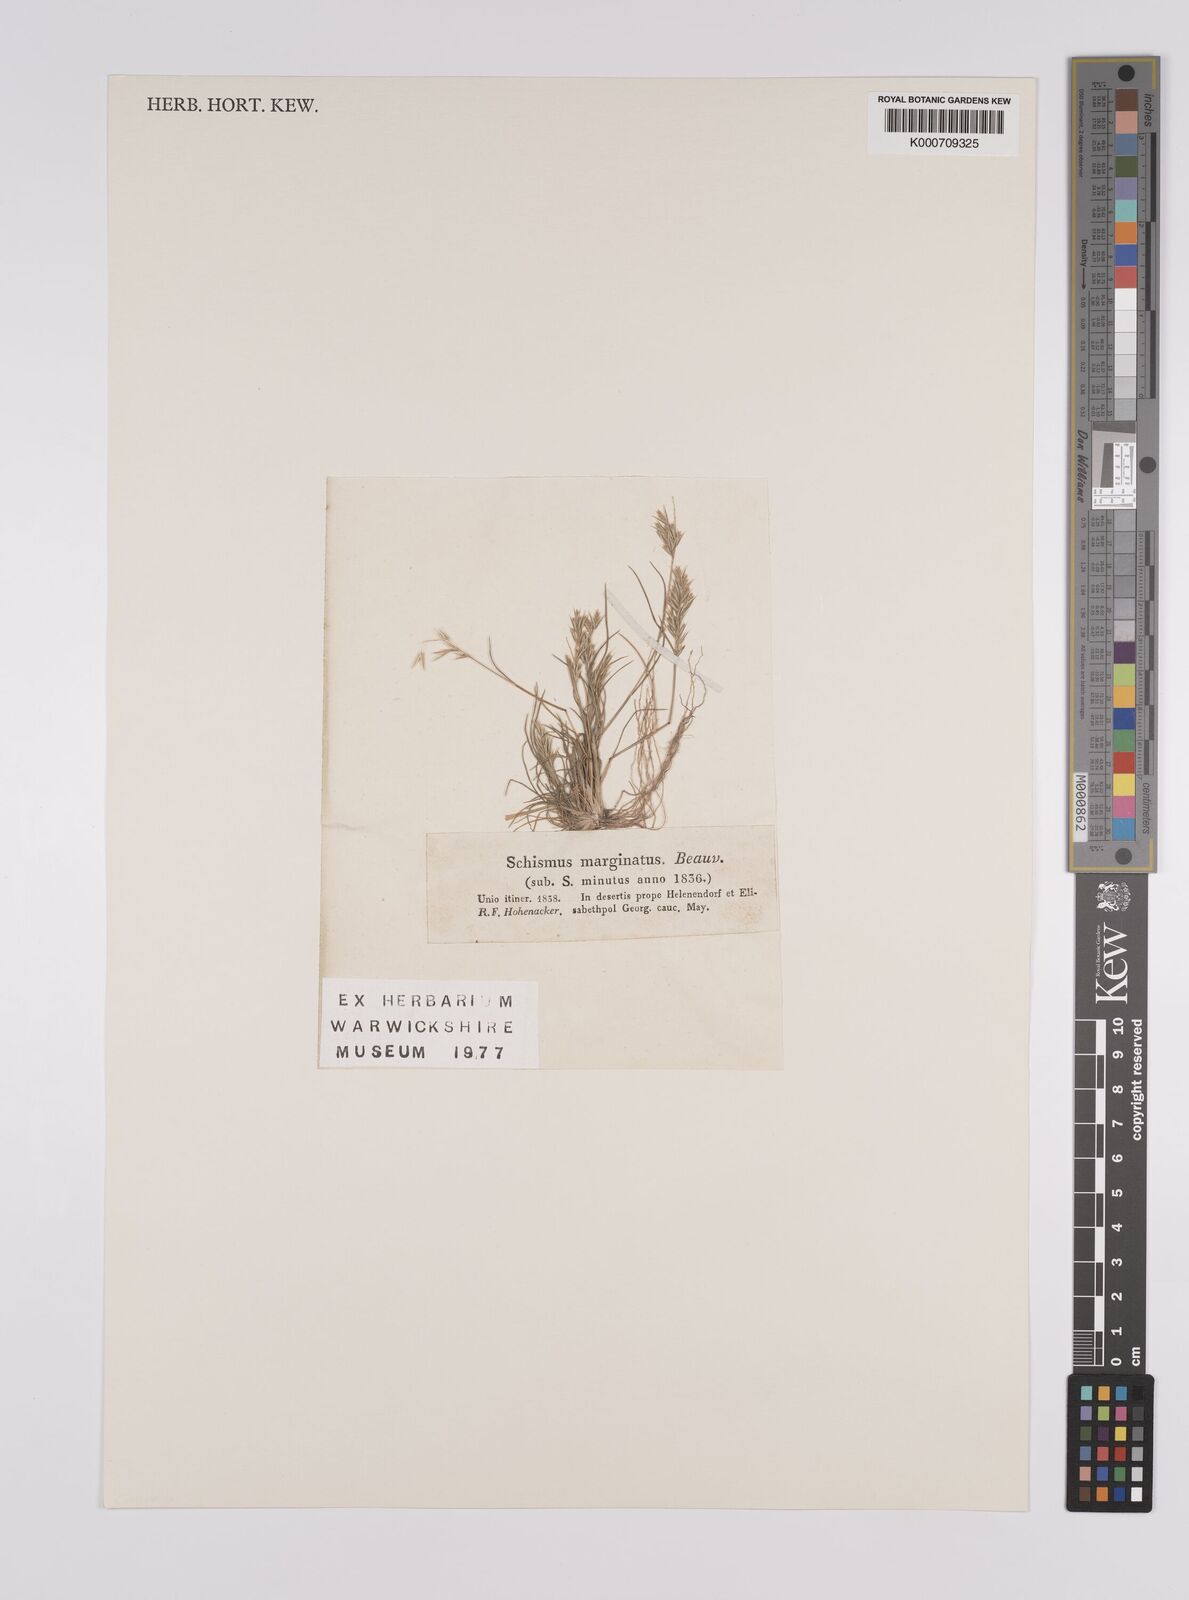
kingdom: Plantae
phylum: Tracheophyta
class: Liliopsida
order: Poales
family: Poaceae
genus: Schismus
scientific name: Schismus arabicus
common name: Arabian schismus
